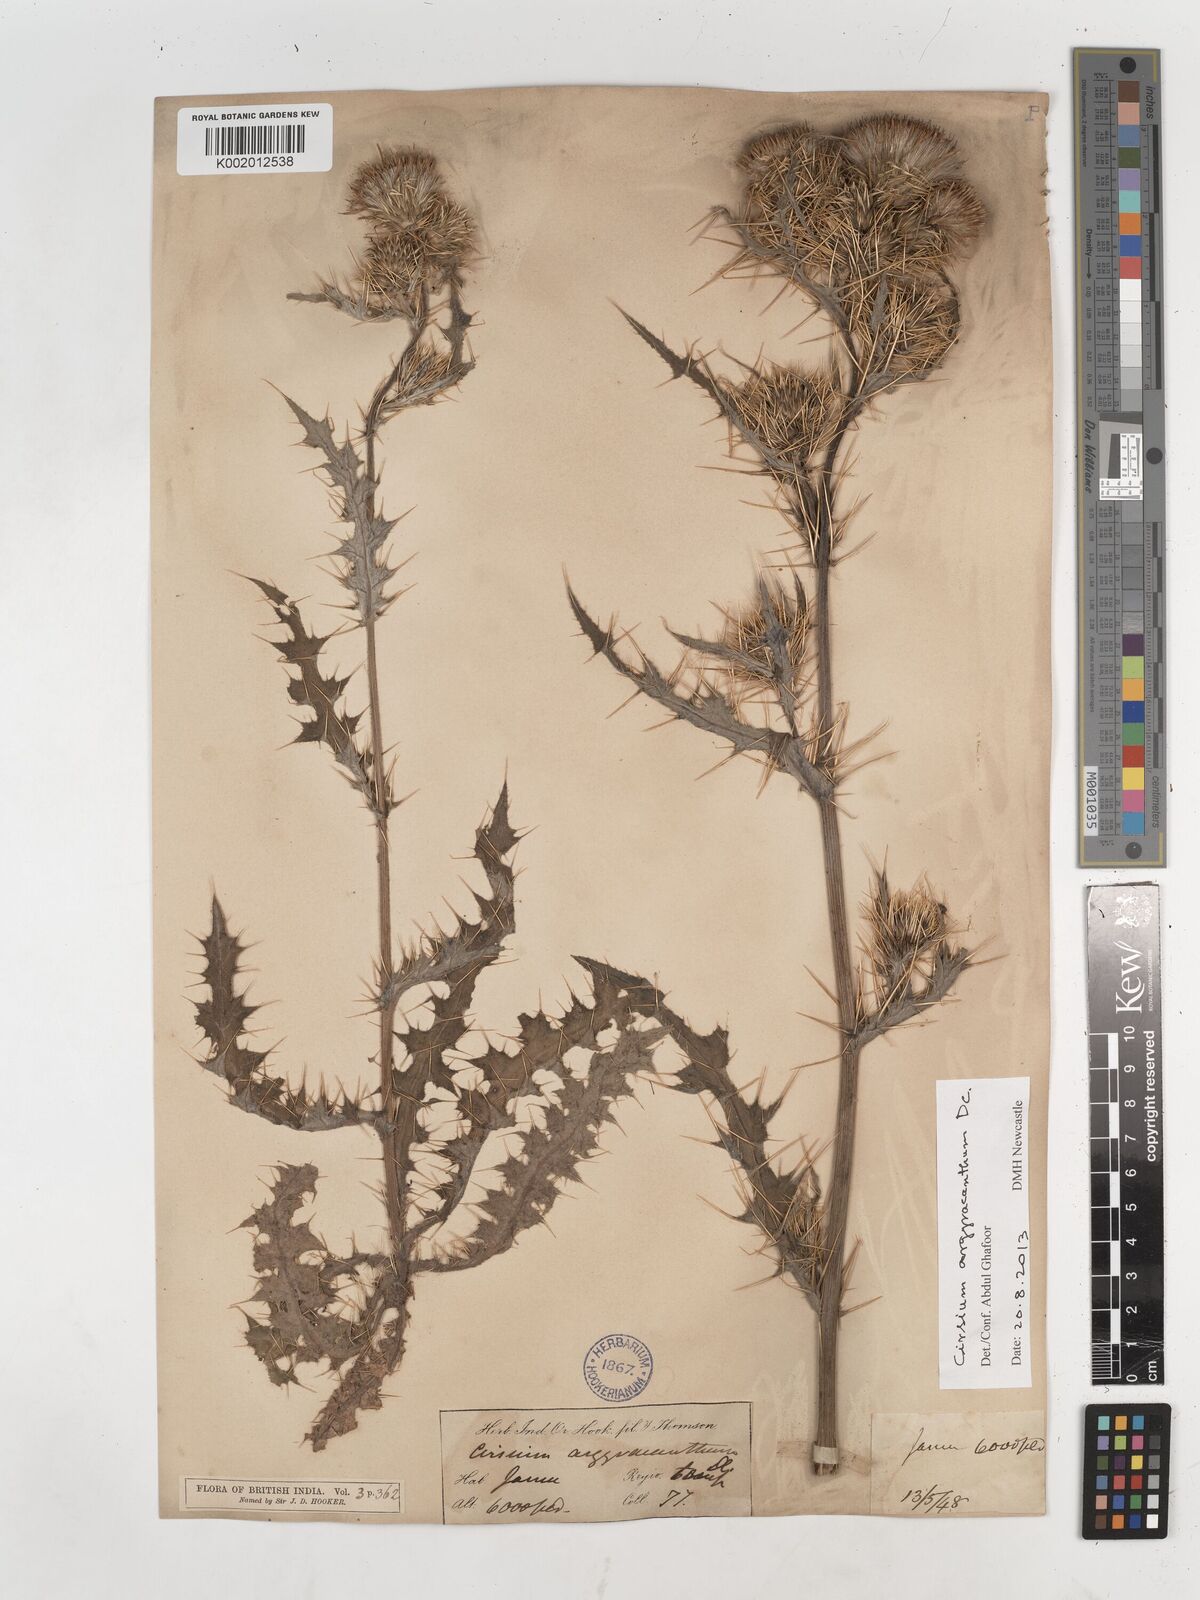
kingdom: Plantae
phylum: Tracheophyta
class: Magnoliopsida
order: Asterales
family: Asteraceae
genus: Cirsium
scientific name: Cirsium argyracanthum
